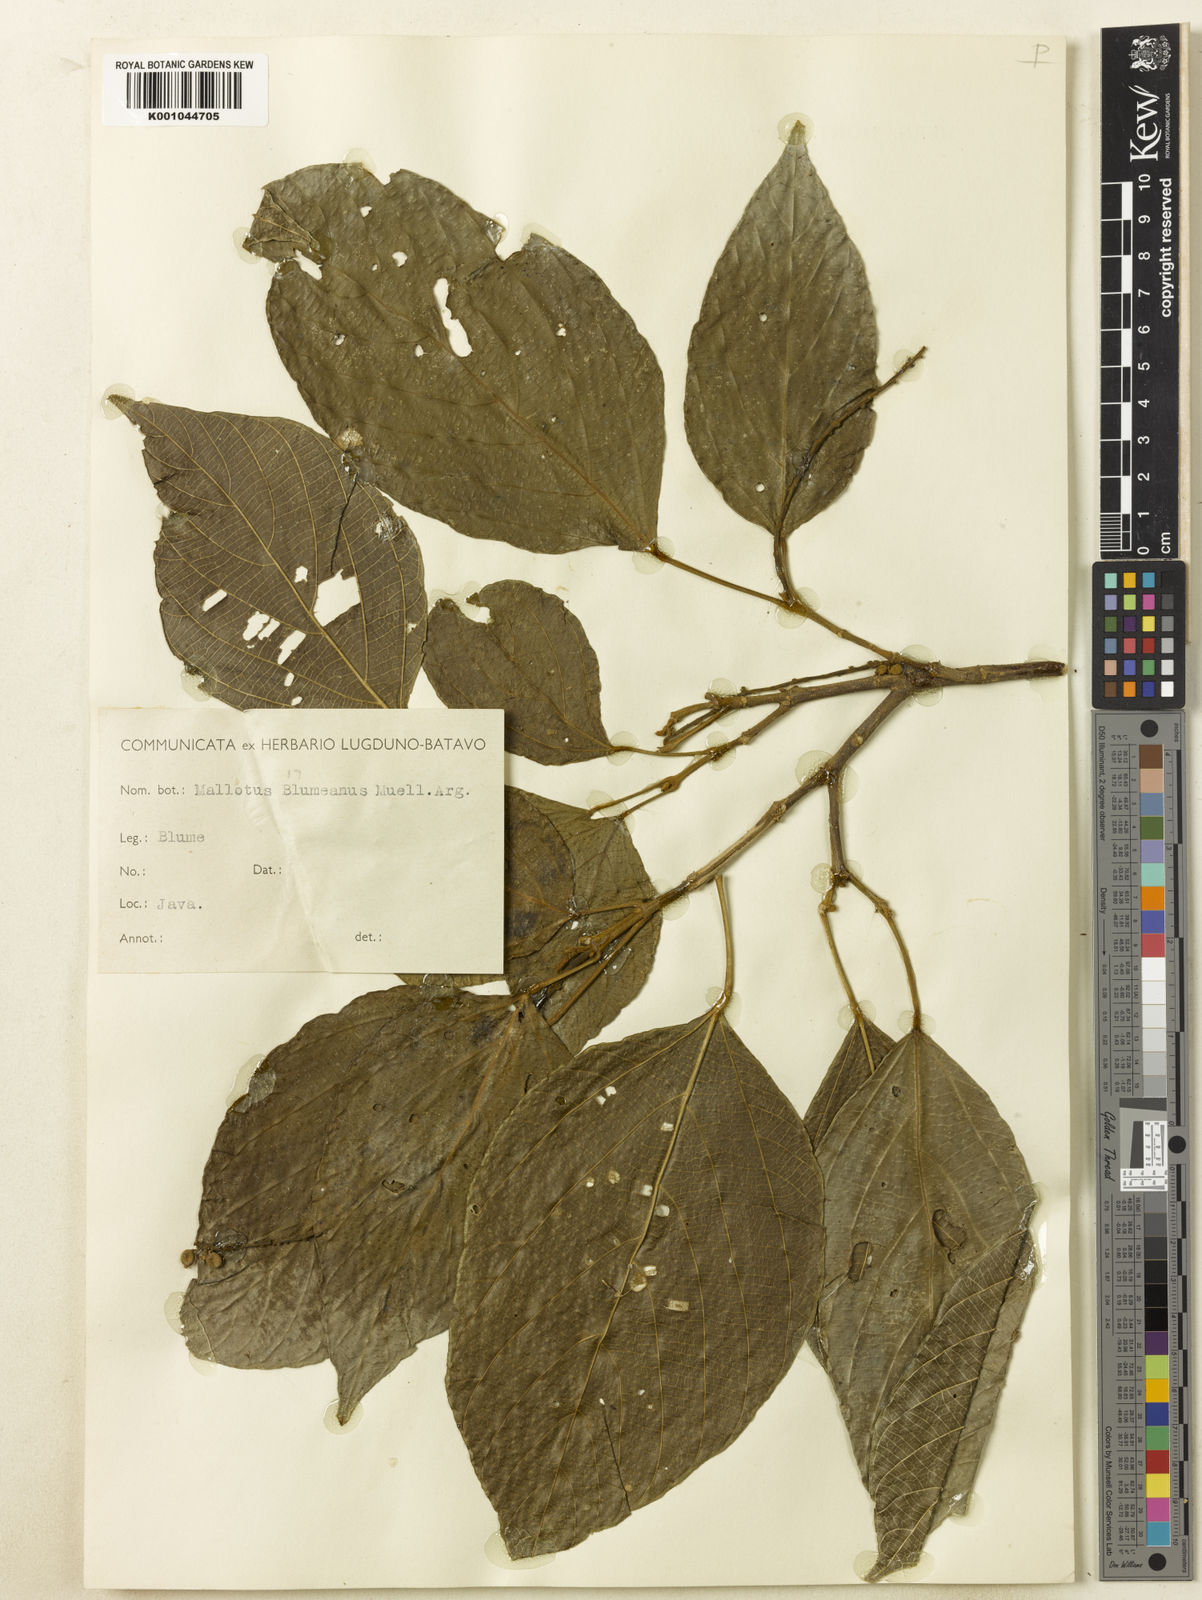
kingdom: Plantae
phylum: Tracheophyta
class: Magnoliopsida
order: Malpighiales
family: Euphorbiaceae
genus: Mallotus
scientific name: Mallotus
